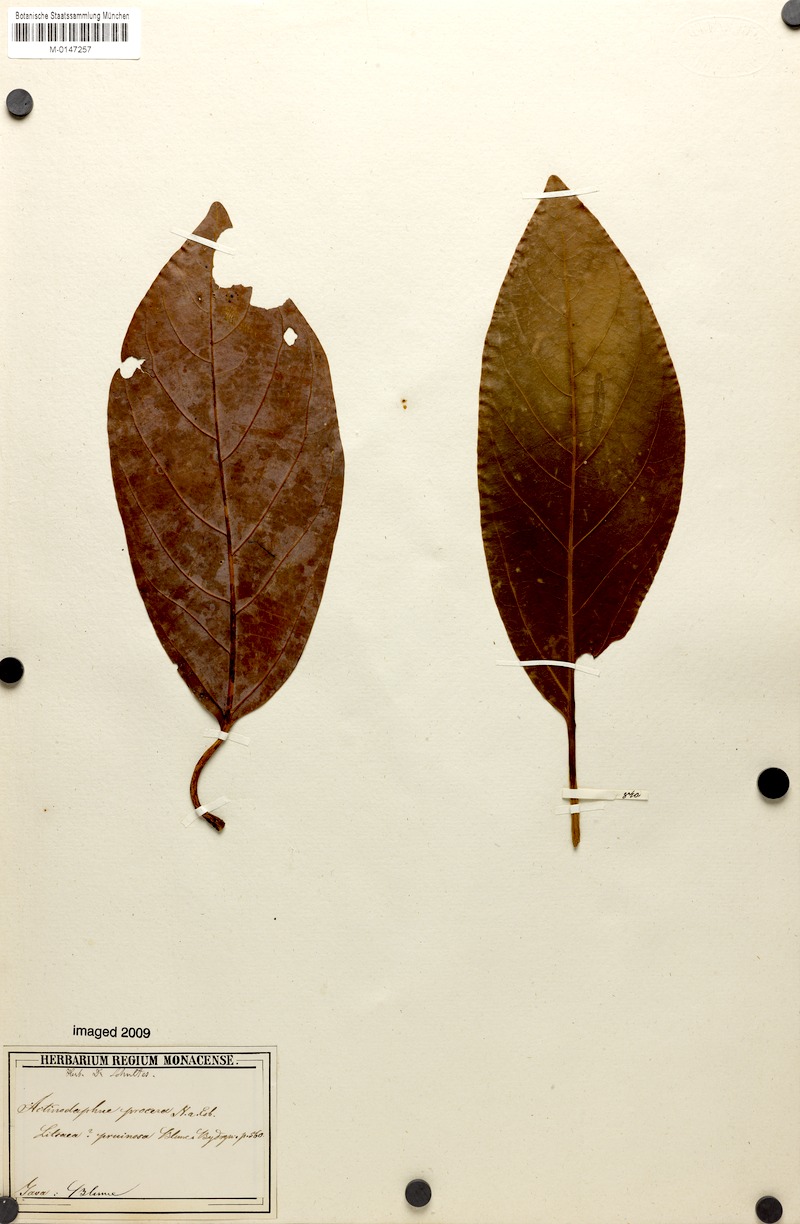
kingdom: Plantae
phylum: Tracheophyta
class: Magnoliopsida
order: Laurales
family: Lauraceae
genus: Actinodaphne
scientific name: Actinodaphne procera
